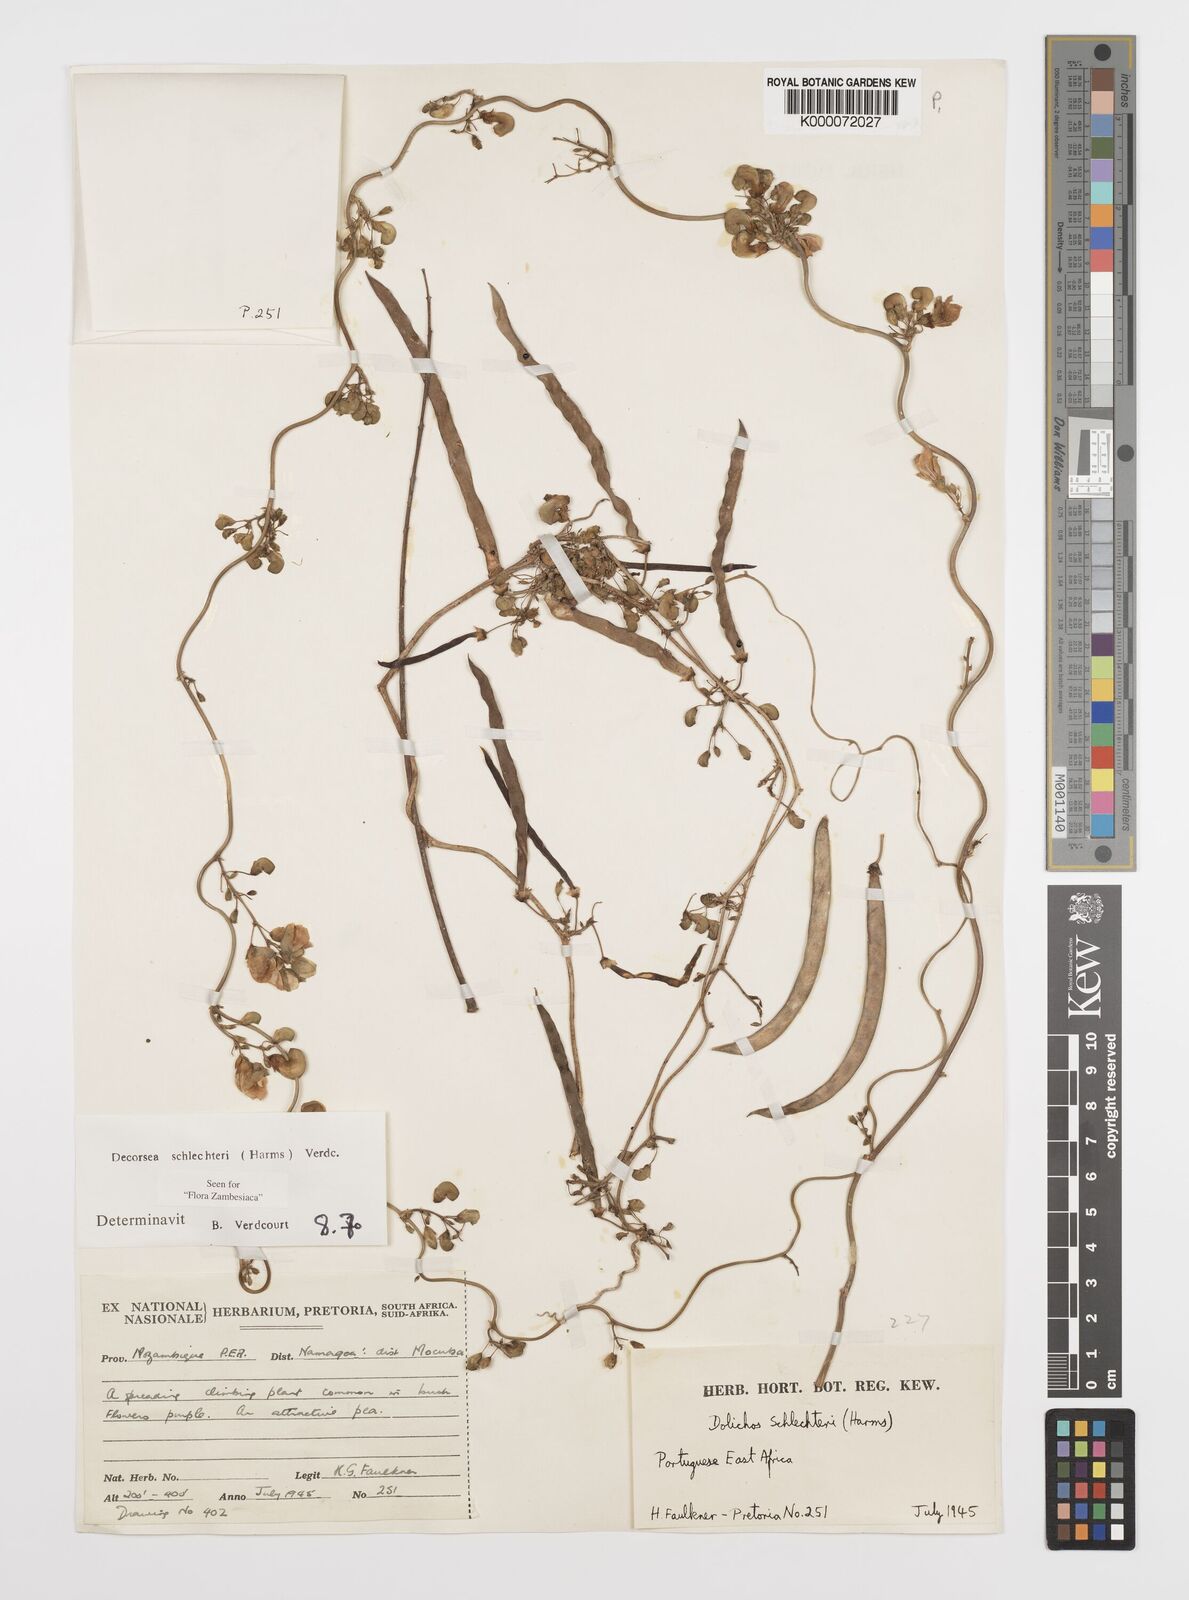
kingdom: Plantae
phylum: Tracheophyta
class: Magnoliopsida
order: Fabales
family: Fabaceae
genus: Decorsea
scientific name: Decorsea schlechteri
